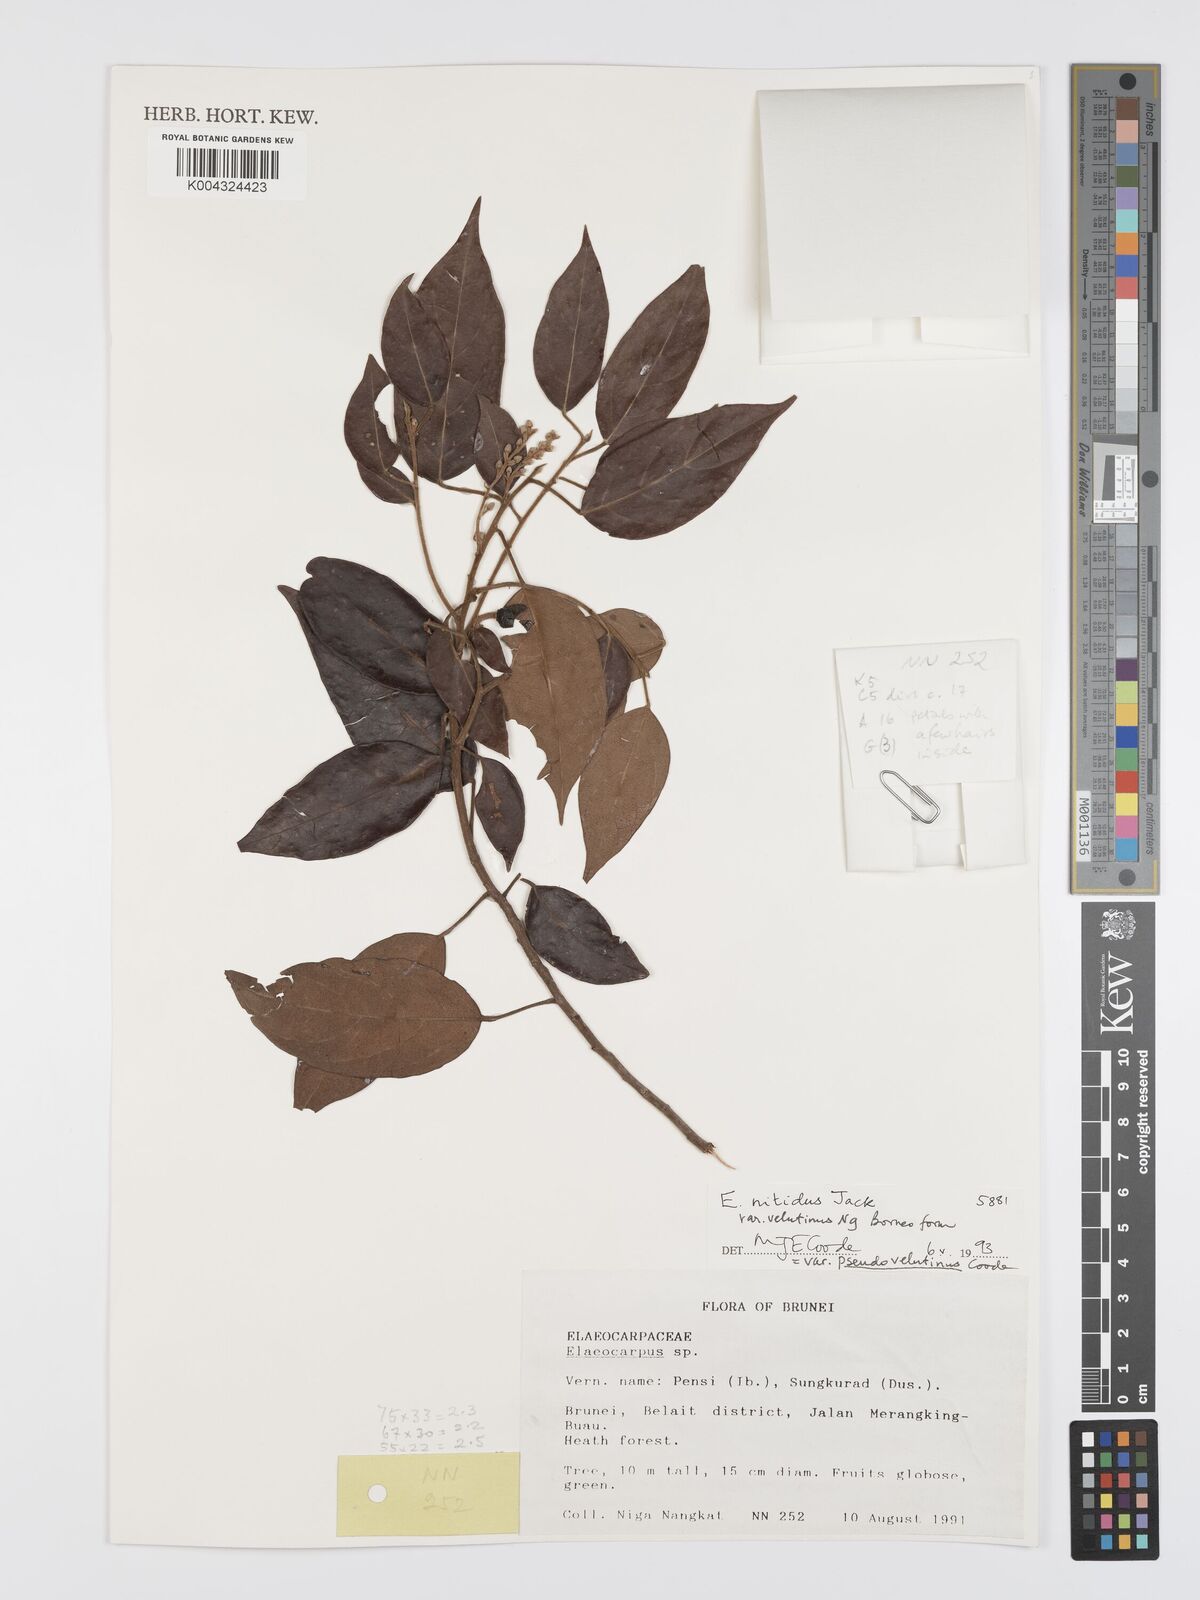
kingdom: Plantae
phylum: Tracheophyta
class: Magnoliopsida
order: Oxalidales
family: Elaeocarpaceae
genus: Elaeocarpus
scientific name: Elaeocarpus nitidus
